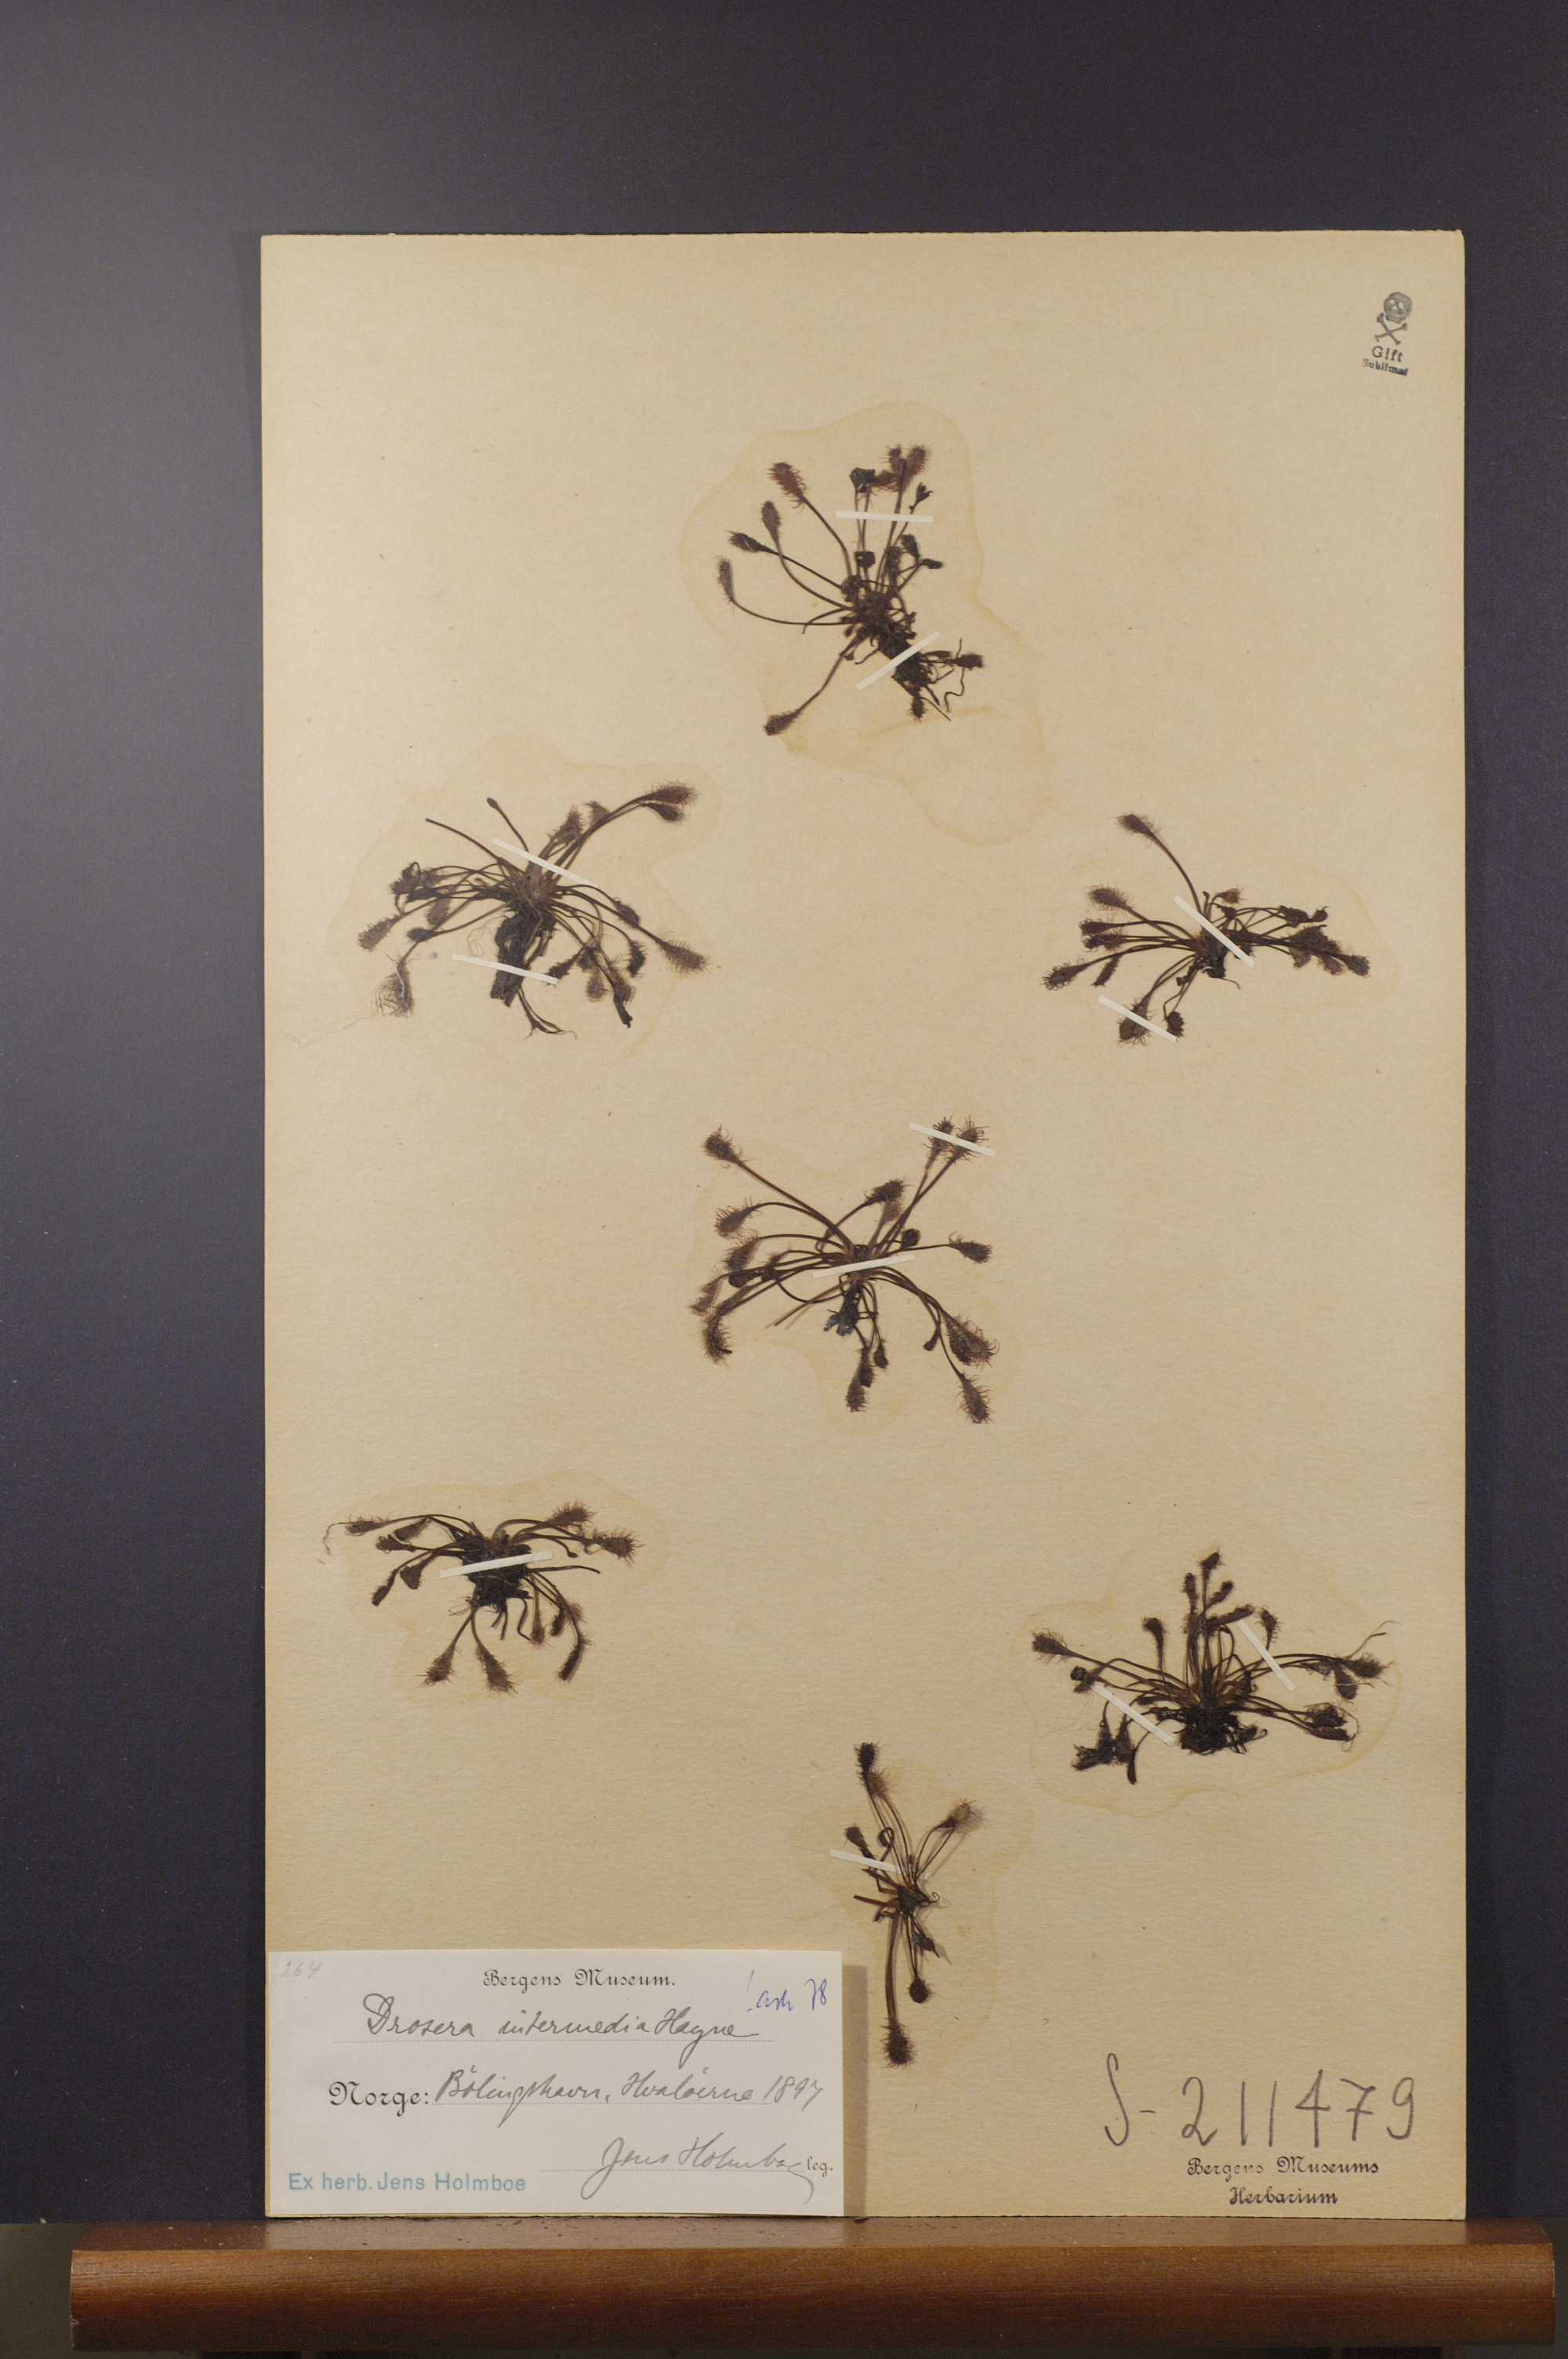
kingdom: Plantae
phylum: Tracheophyta
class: Magnoliopsida
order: Caryophyllales
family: Droseraceae
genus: Drosera
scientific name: Drosera intermedia
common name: Oblong-leaved sundew
